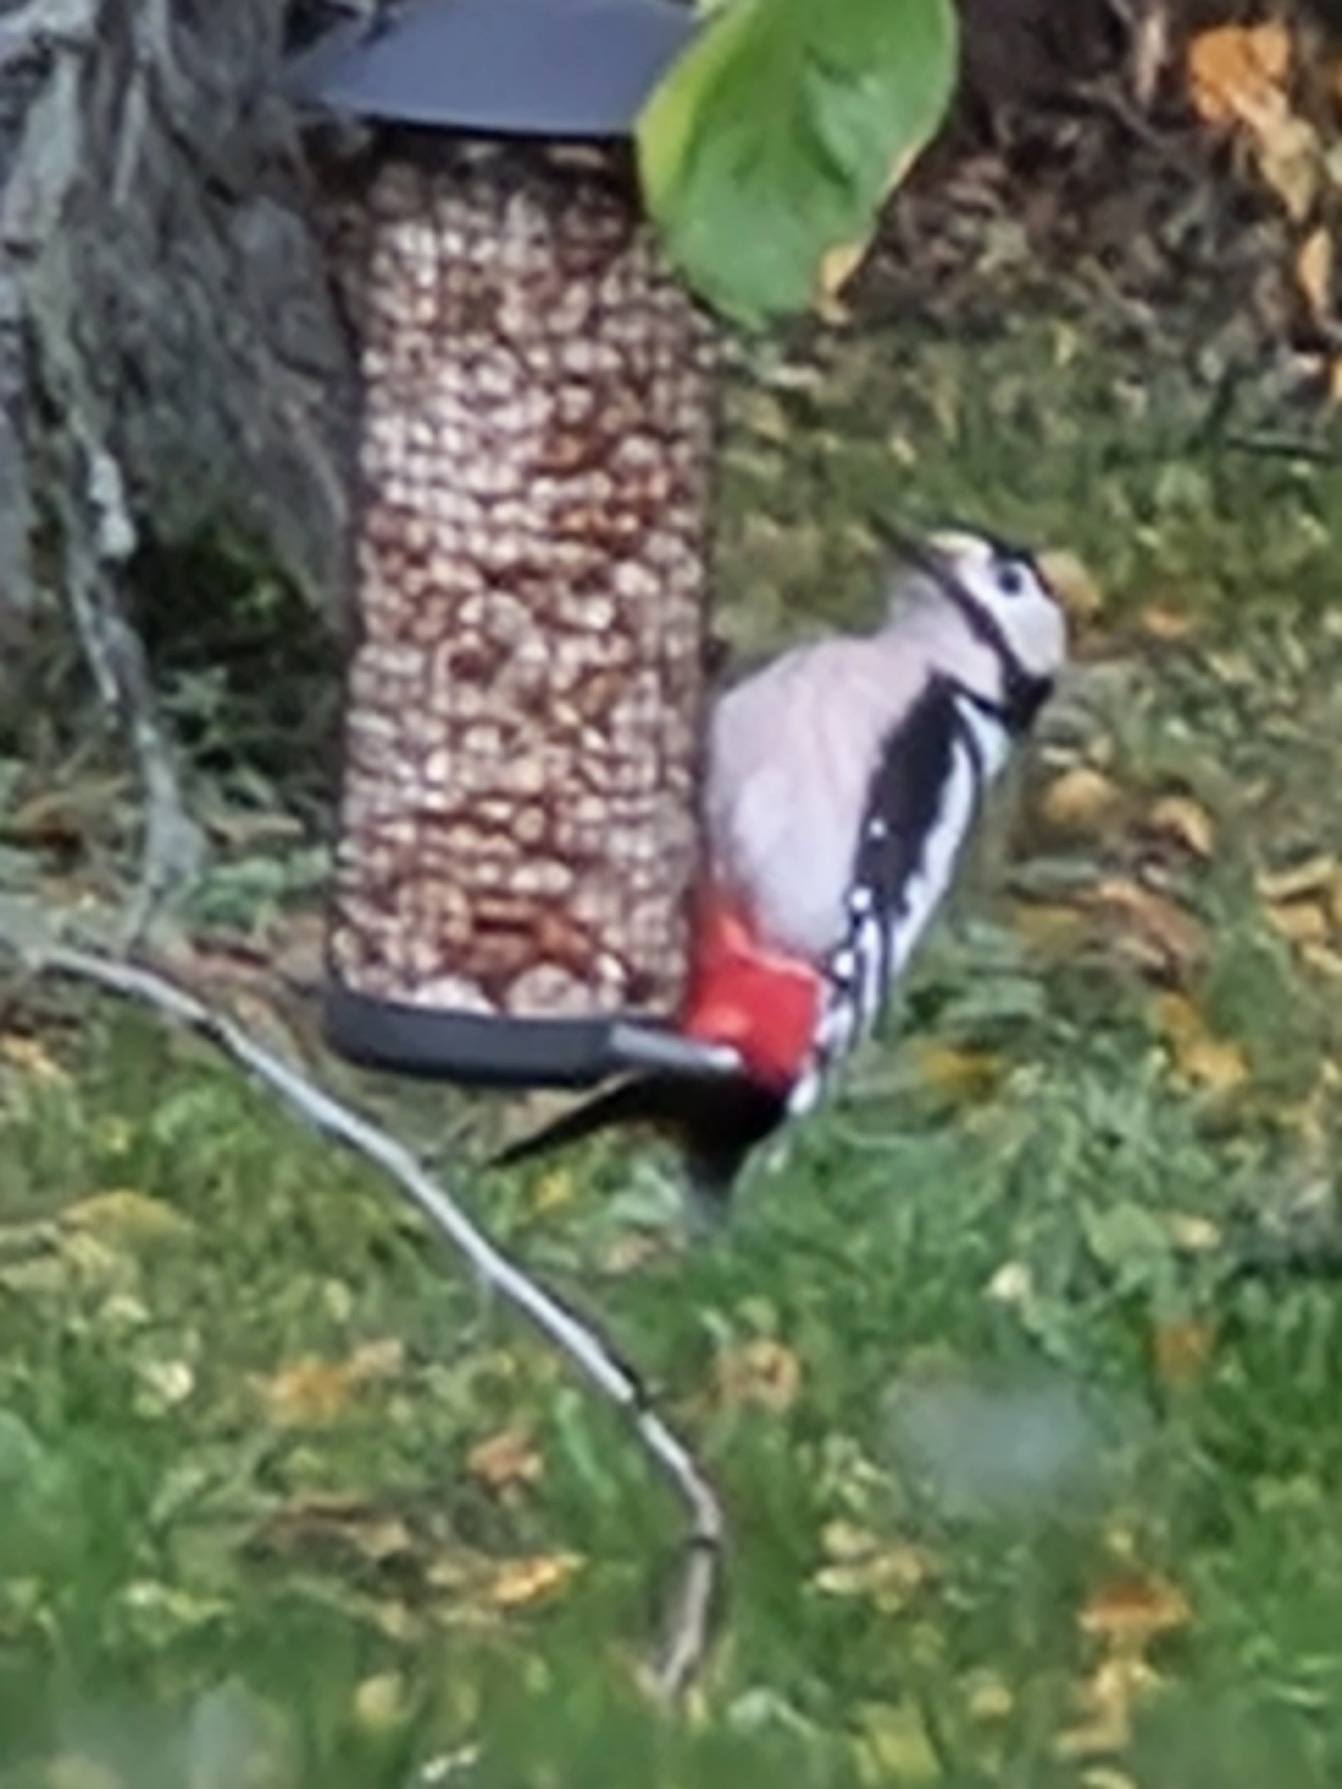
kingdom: Animalia
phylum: Chordata
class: Aves
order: Piciformes
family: Picidae
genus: Dendrocopos
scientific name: Dendrocopos major
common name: Stor flagspætte
